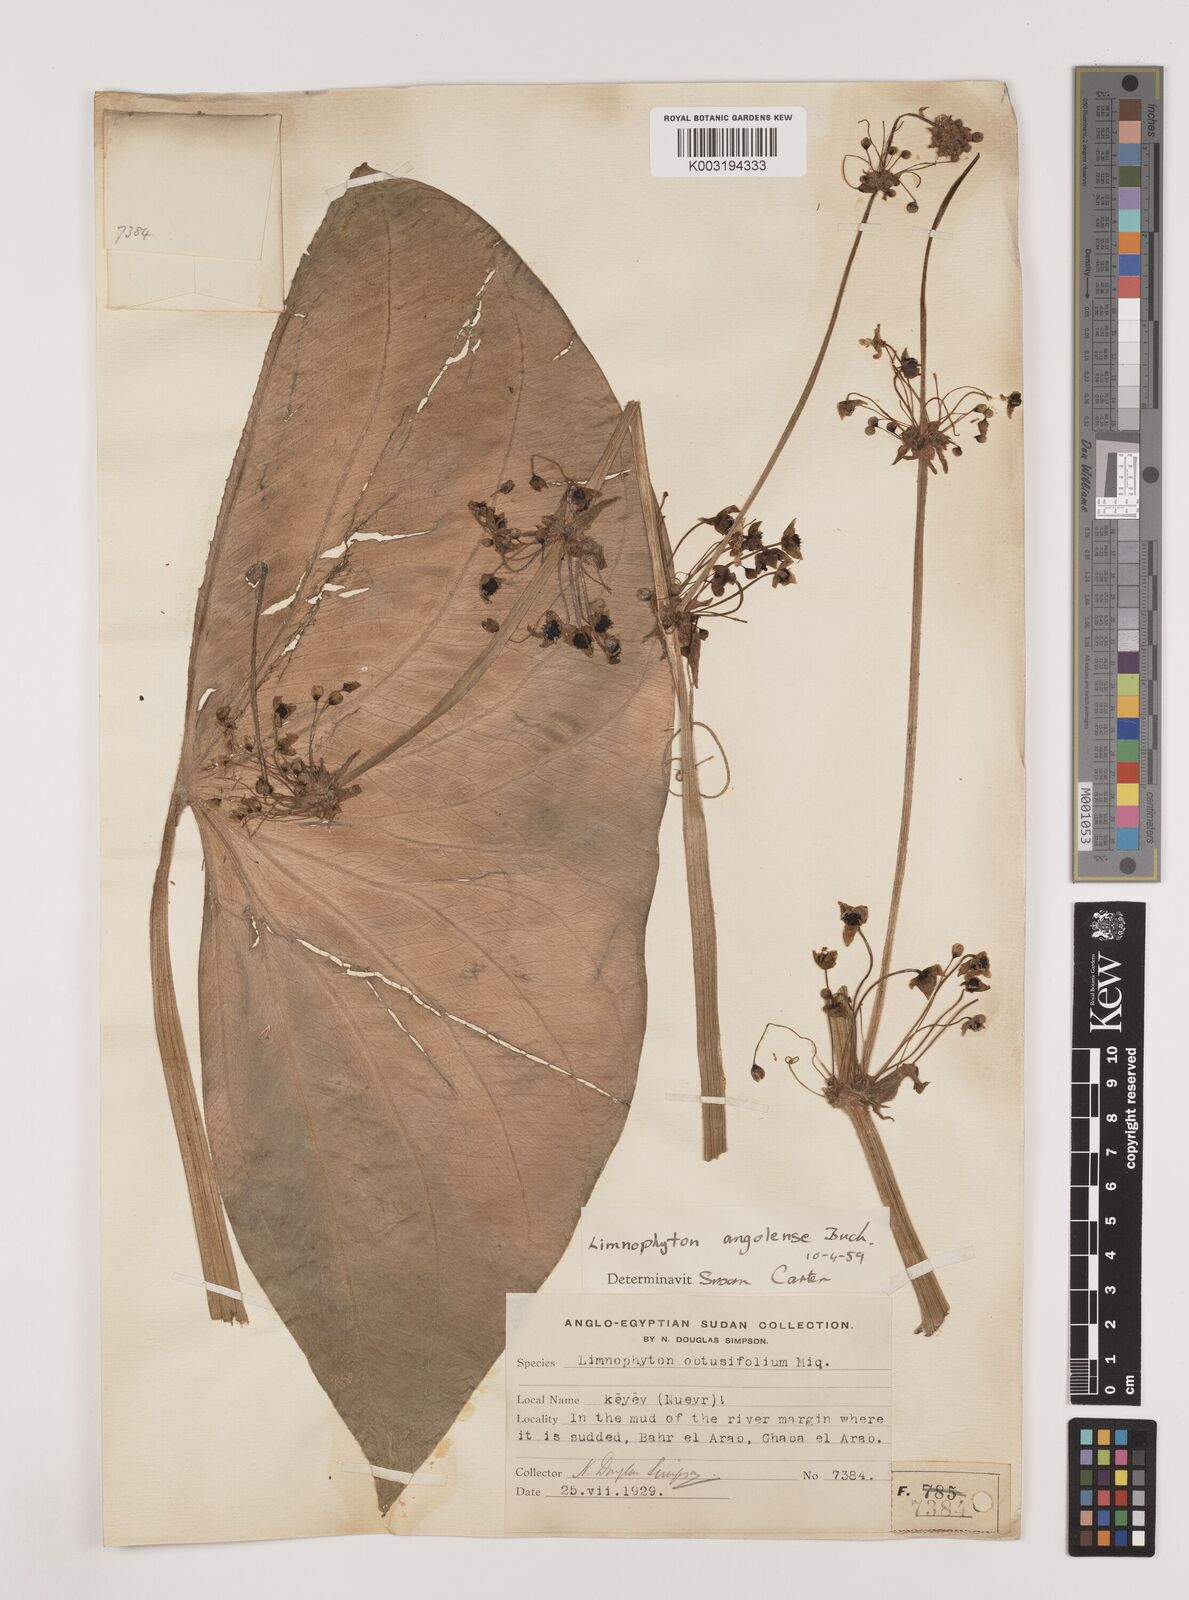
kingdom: Plantae
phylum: Tracheophyta
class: Liliopsida
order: Alismatales
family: Alismataceae
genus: Limnophyton
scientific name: Limnophyton angolense
